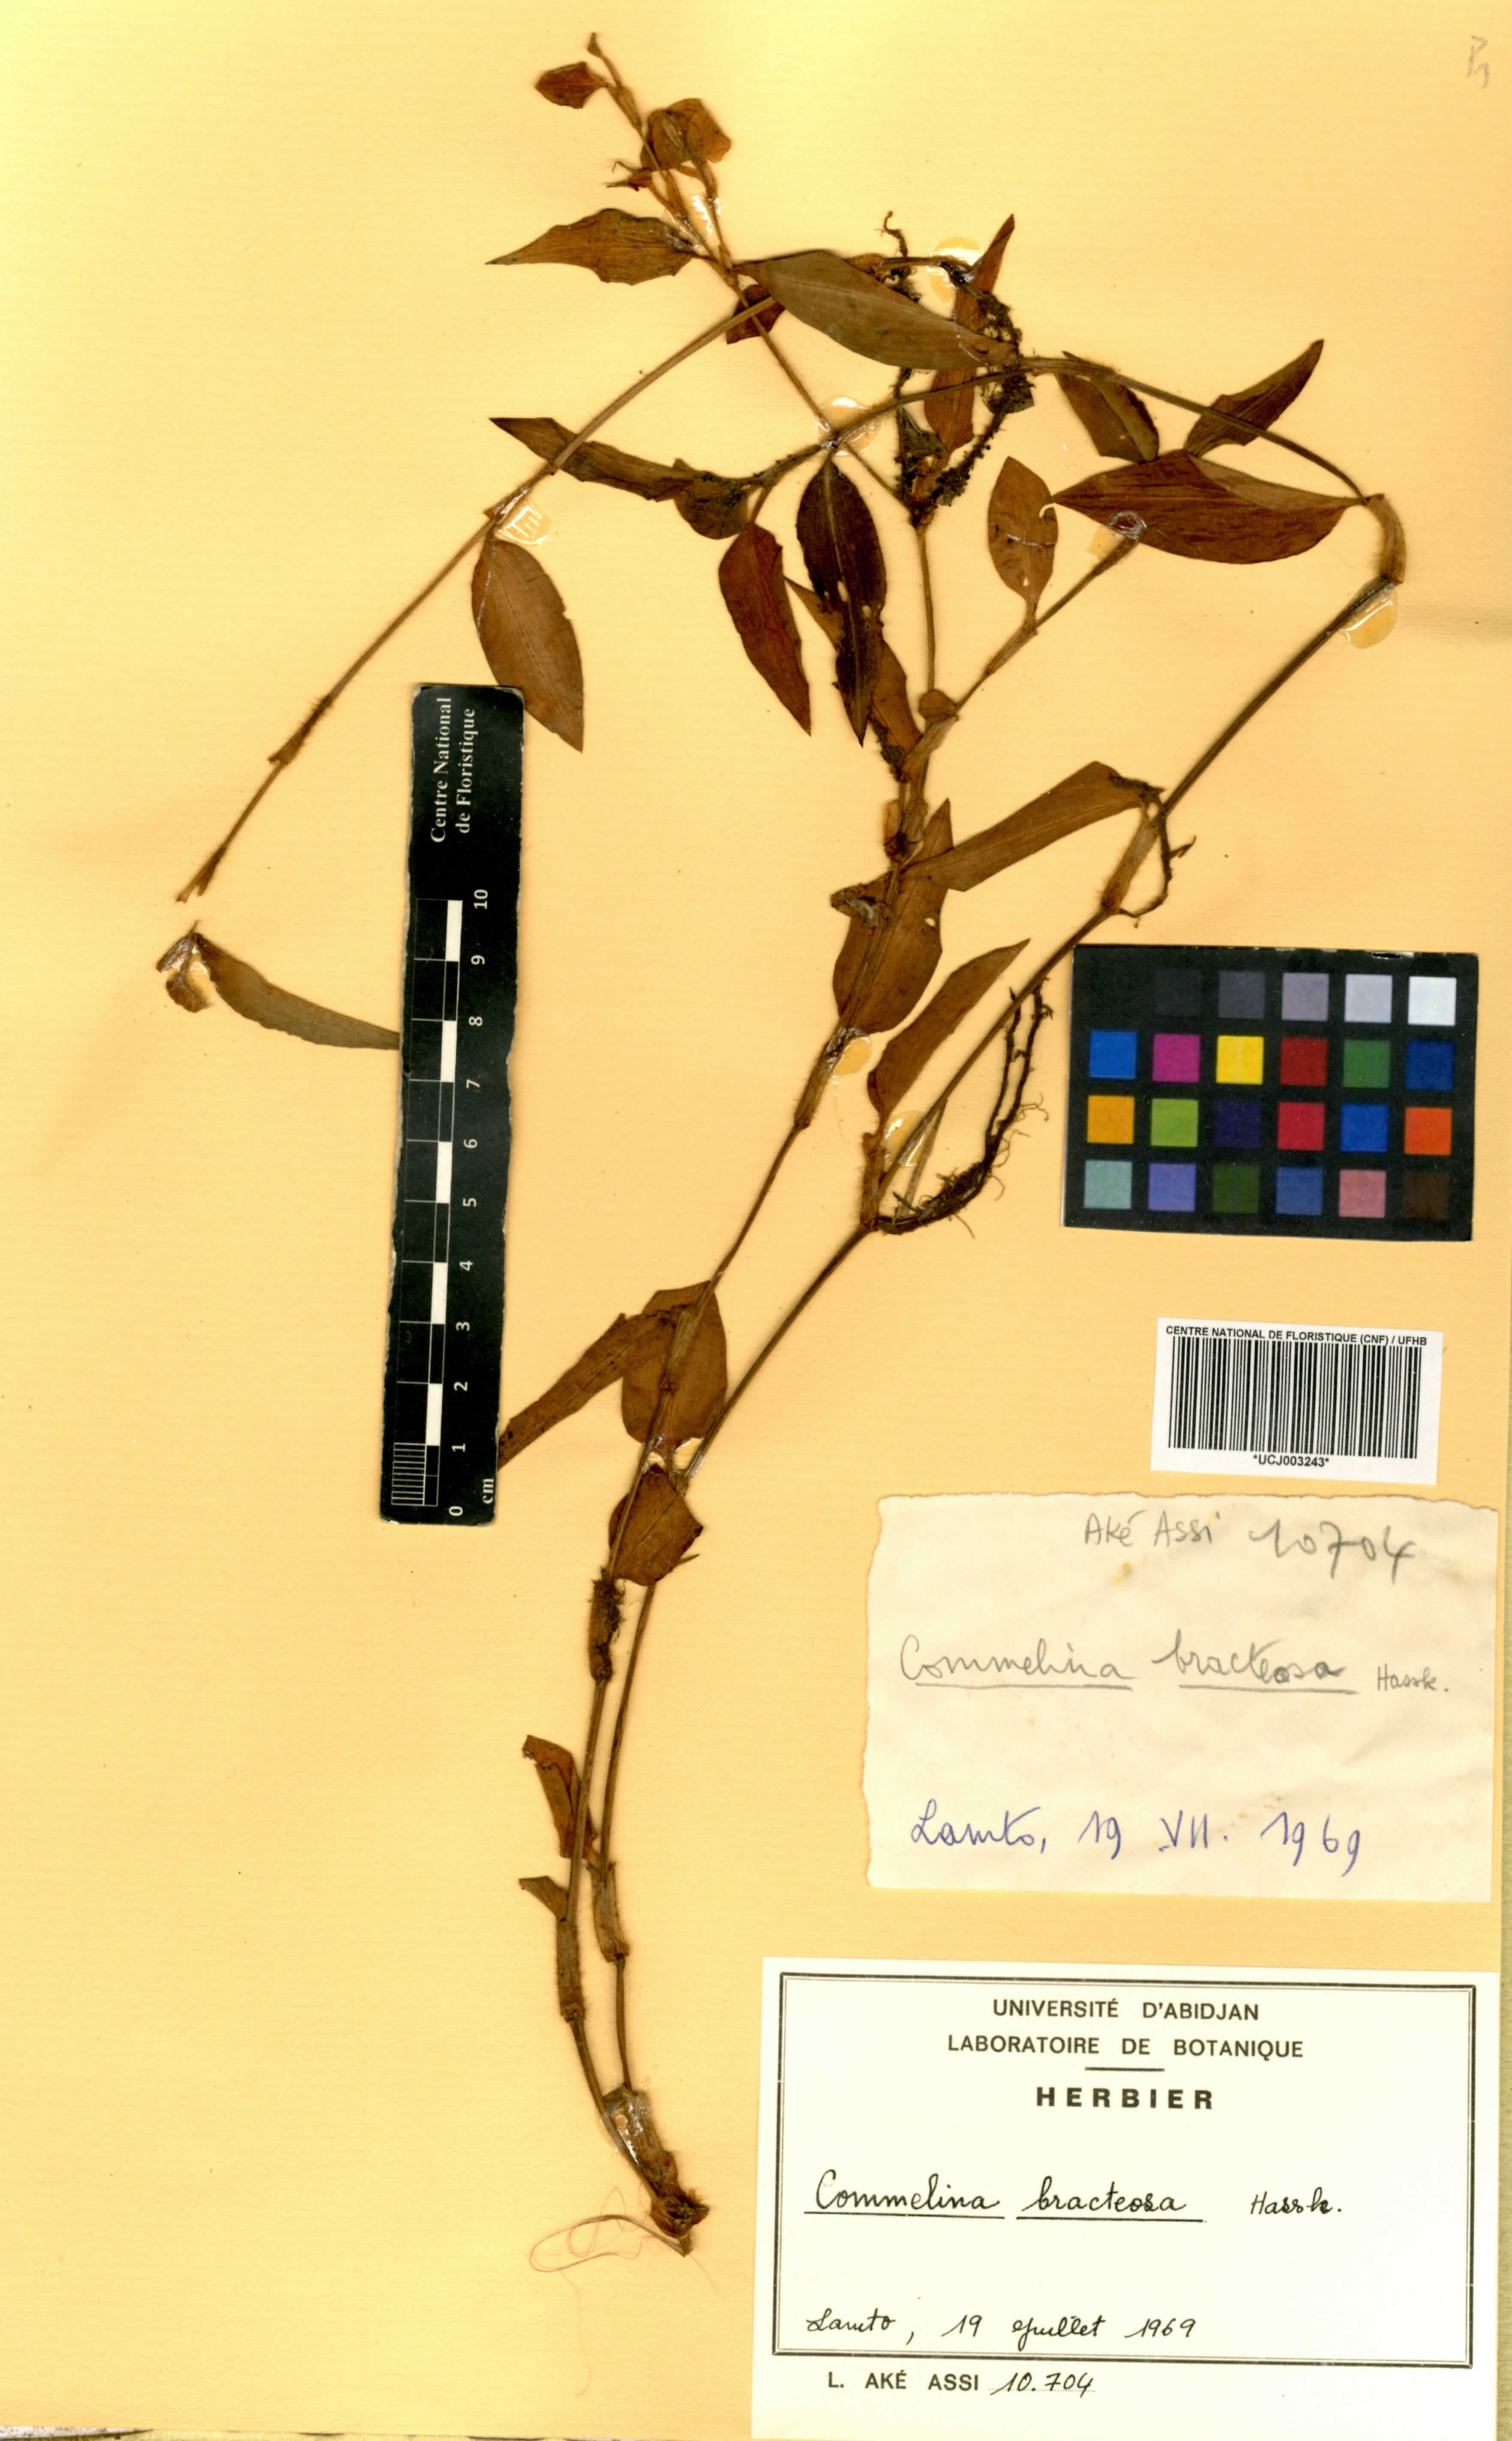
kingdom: Plantae
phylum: Tracheophyta
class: Liliopsida
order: Commelinales
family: Commelinaceae
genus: Commelina
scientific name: Commelina bracteosa
